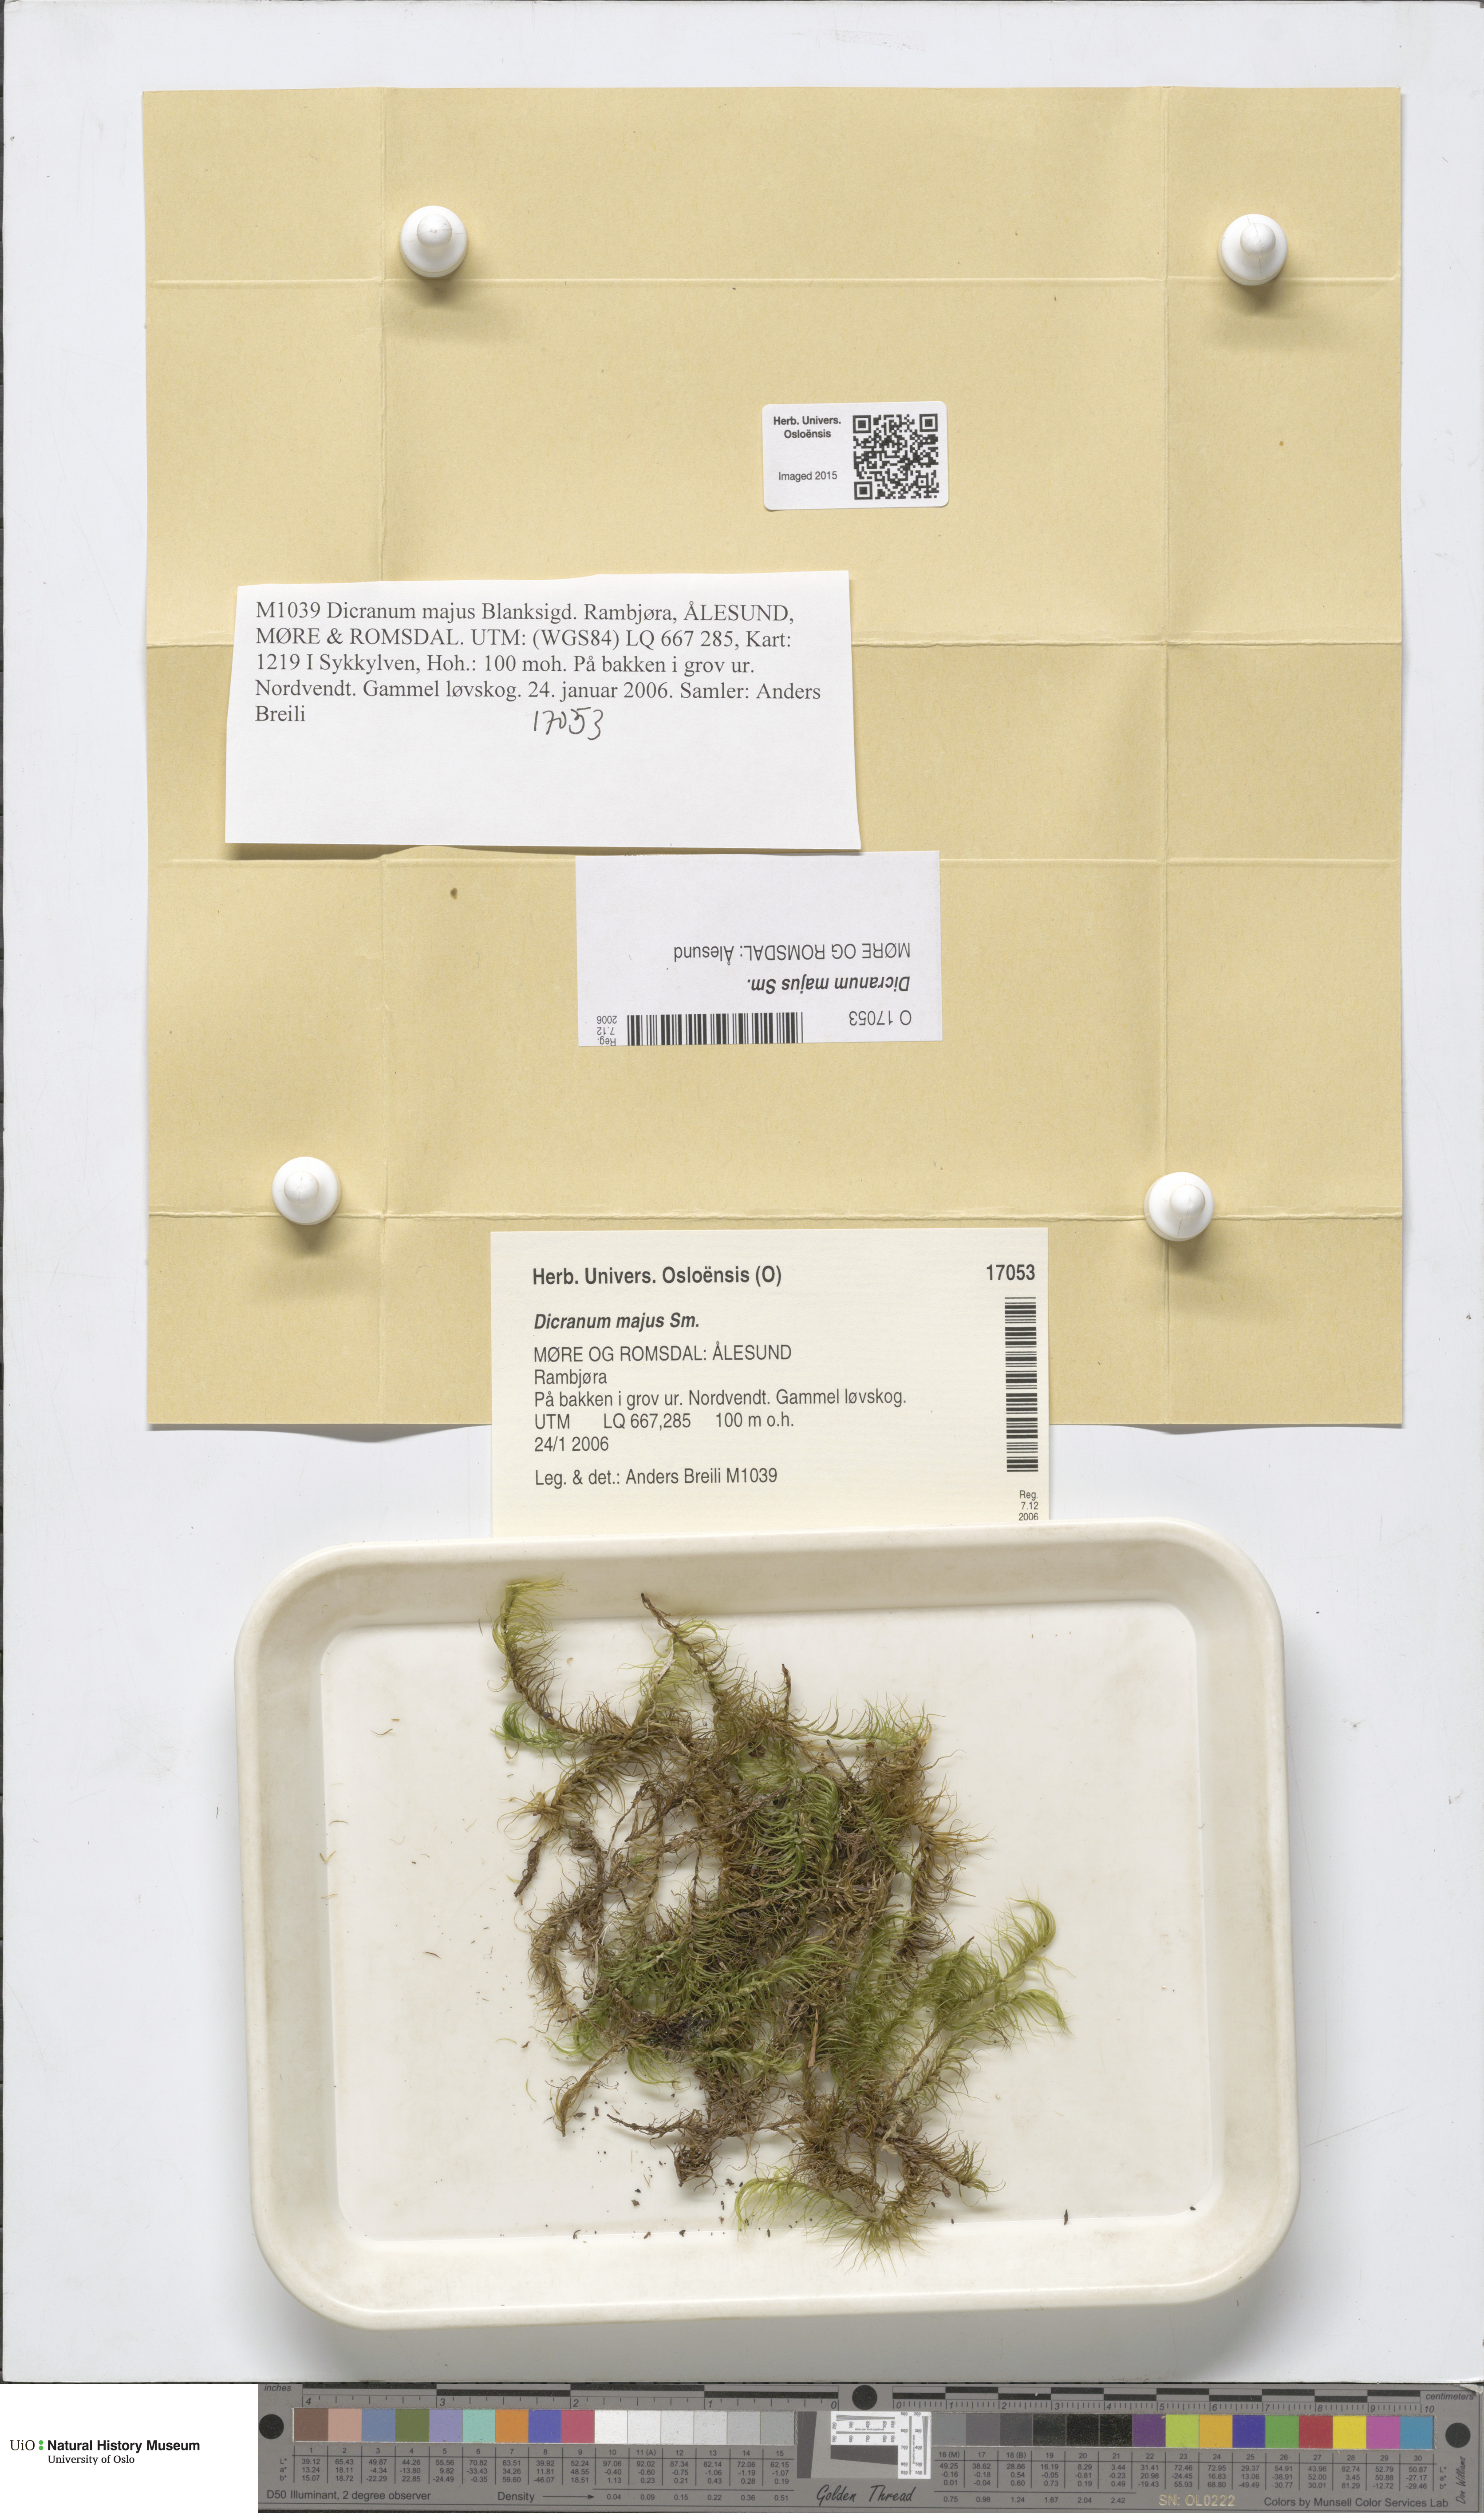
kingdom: Plantae
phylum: Bryophyta
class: Bryopsida
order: Dicranales
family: Dicranaceae
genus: Dicranum
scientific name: Dicranum majus
